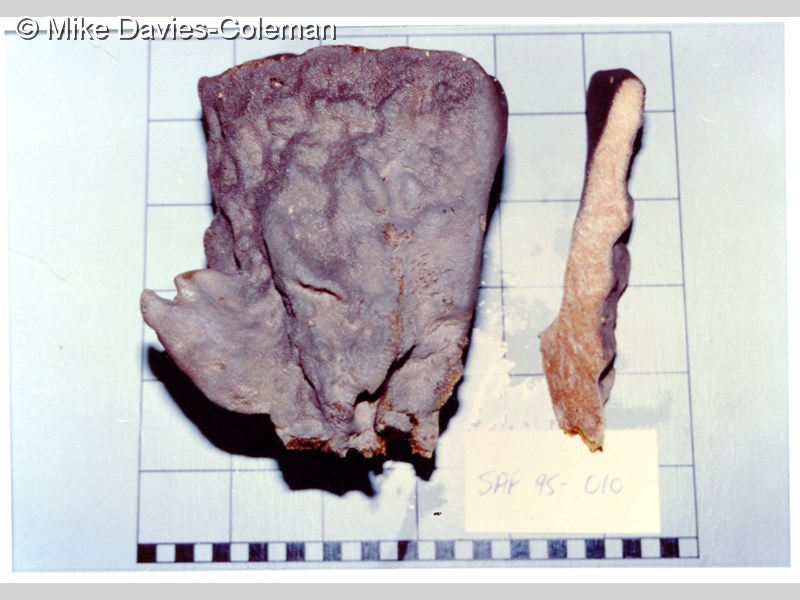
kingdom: Animalia
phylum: Porifera
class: Demospongiae
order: Dictyoceratida
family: Irciniidae
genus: Psammocinia
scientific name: Psammocinia hawere
